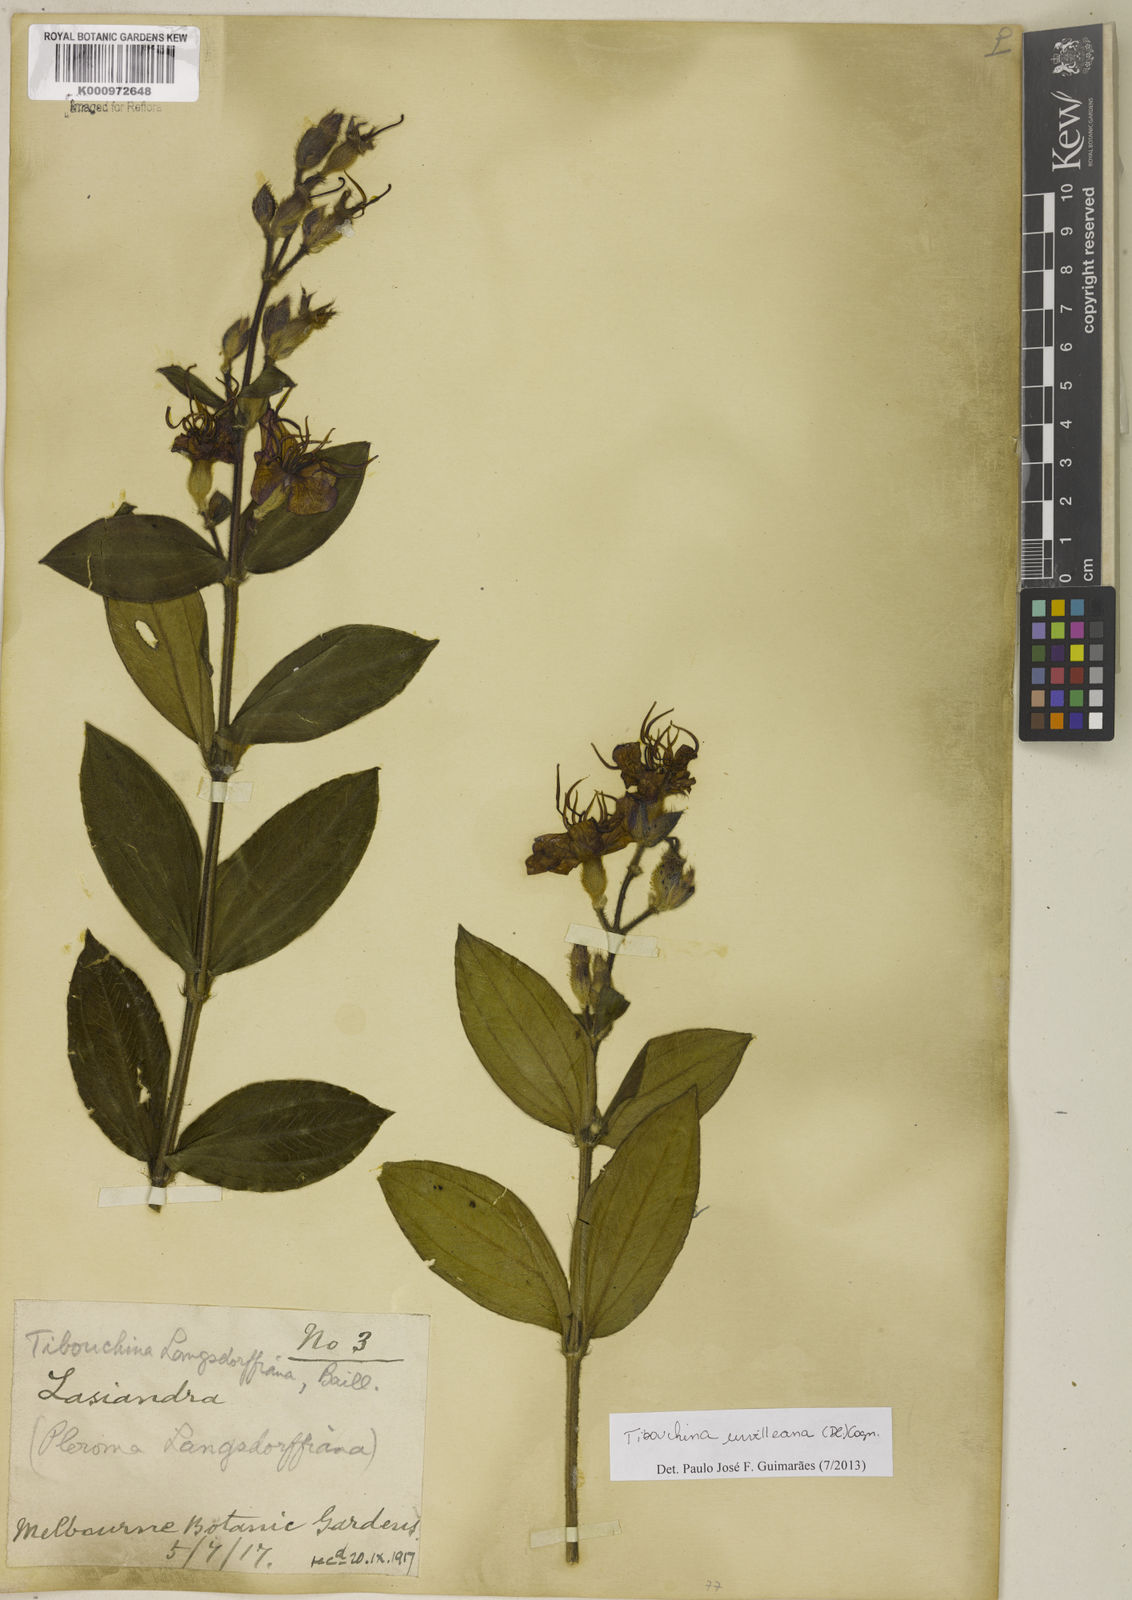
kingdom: Plantae
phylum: Tracheophyta
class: Magnoliopsida
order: Myrtales
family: Melastomataceae
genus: Pleroma
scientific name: Pleroma urvilleanum
